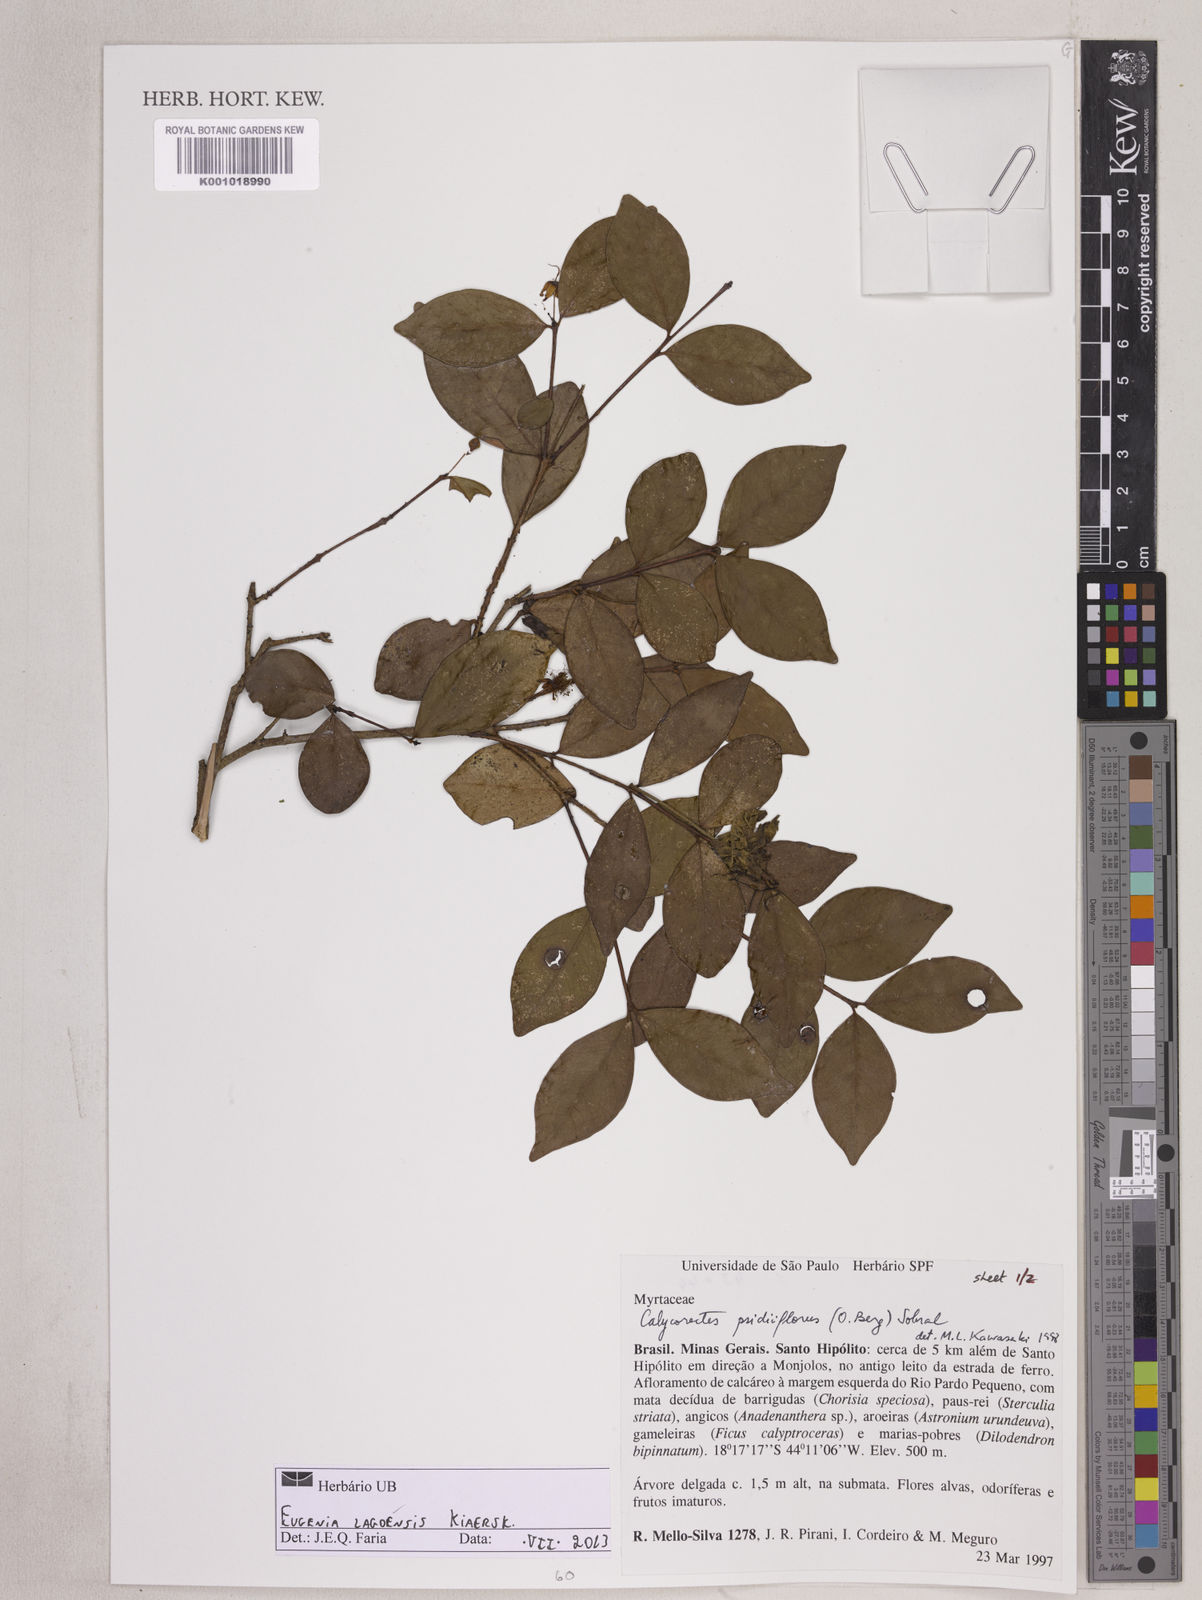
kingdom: Plantae
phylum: Tracheophyta
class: Magnoliopsida
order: Myrtales
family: Myrtaceae
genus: Eugenia
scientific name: Eugenia lagoensis
